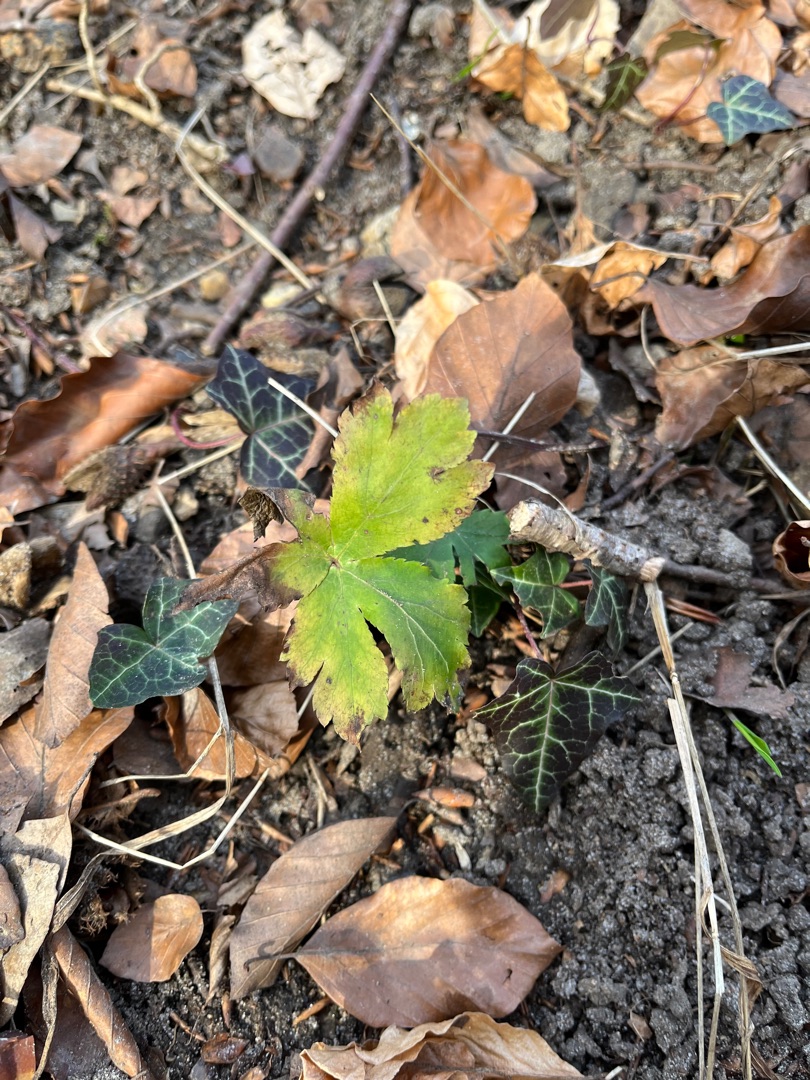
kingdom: Plantae
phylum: Tracheophyta
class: Magnoliopsida
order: Apiales
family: Apiaceae
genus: Sanicula
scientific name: Sanicula europaea
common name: Sanikel
